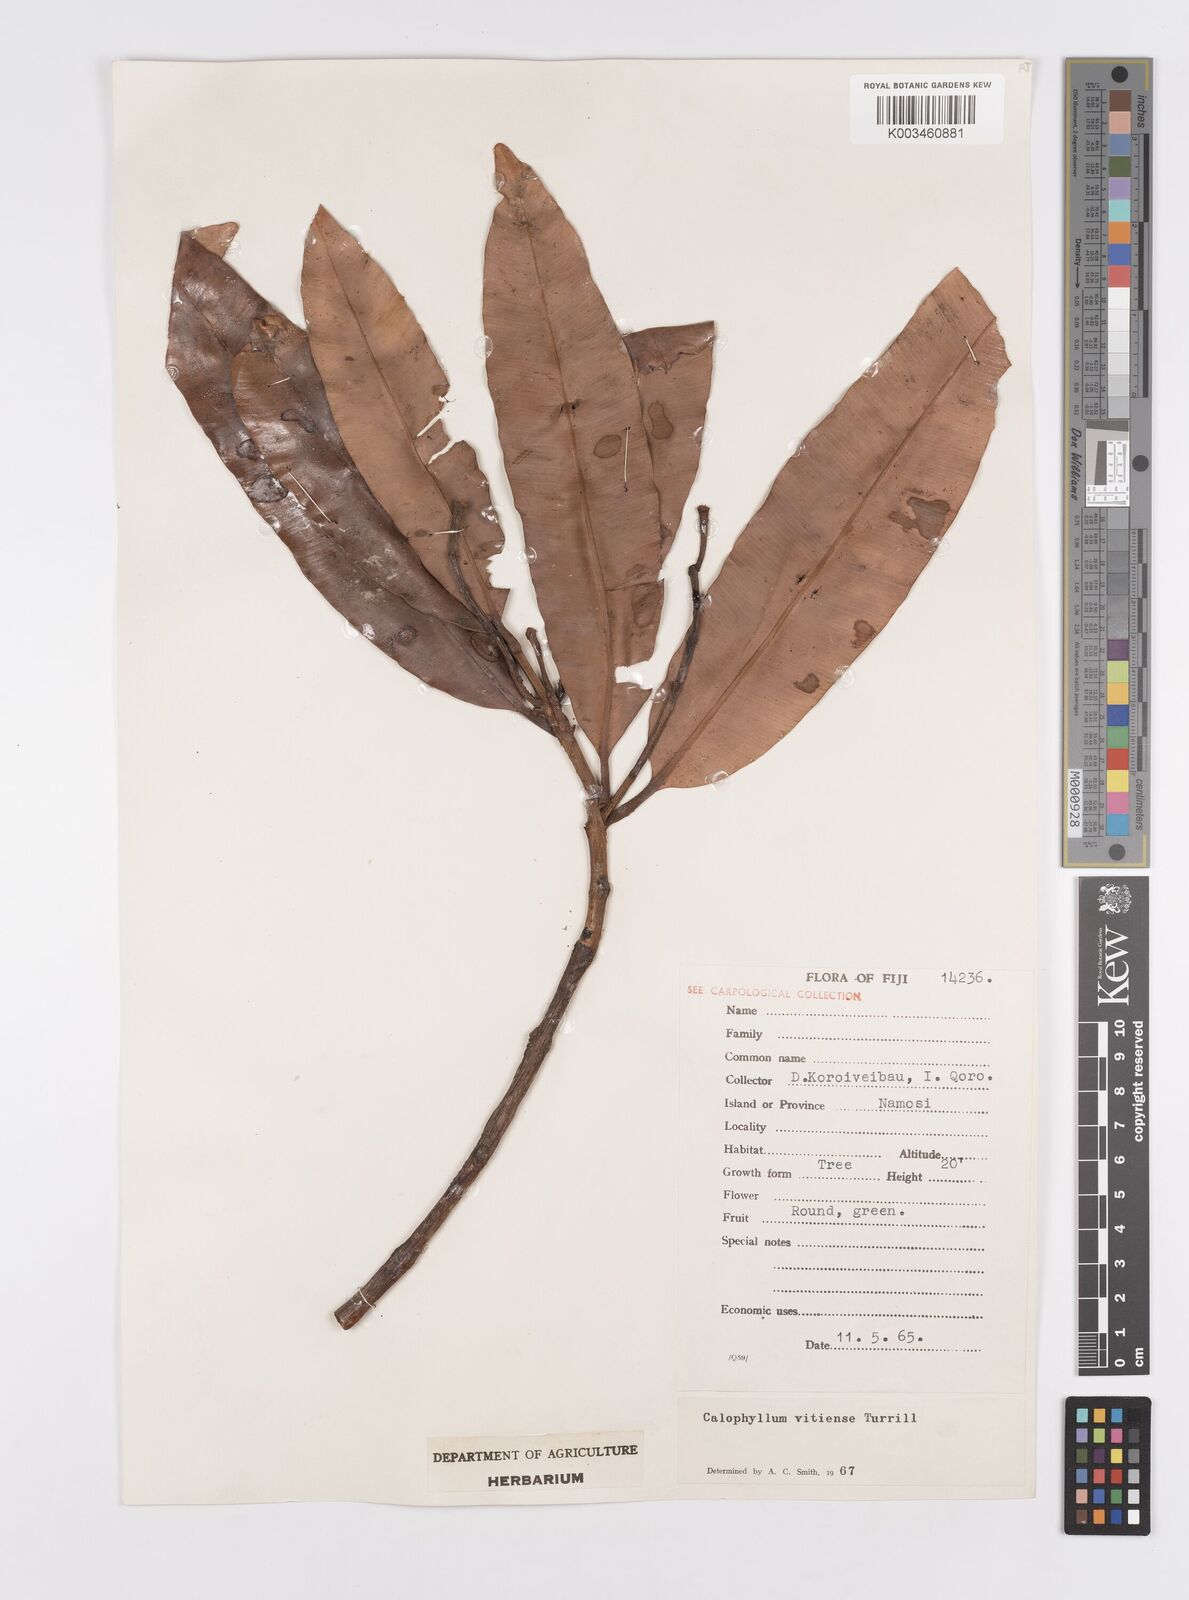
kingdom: Plantae
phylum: Tracheophyta
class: Magnoliopsida
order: Malpighiales
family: Calophyllaceae
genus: Calophyllum
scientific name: Calophyllum vitiense
